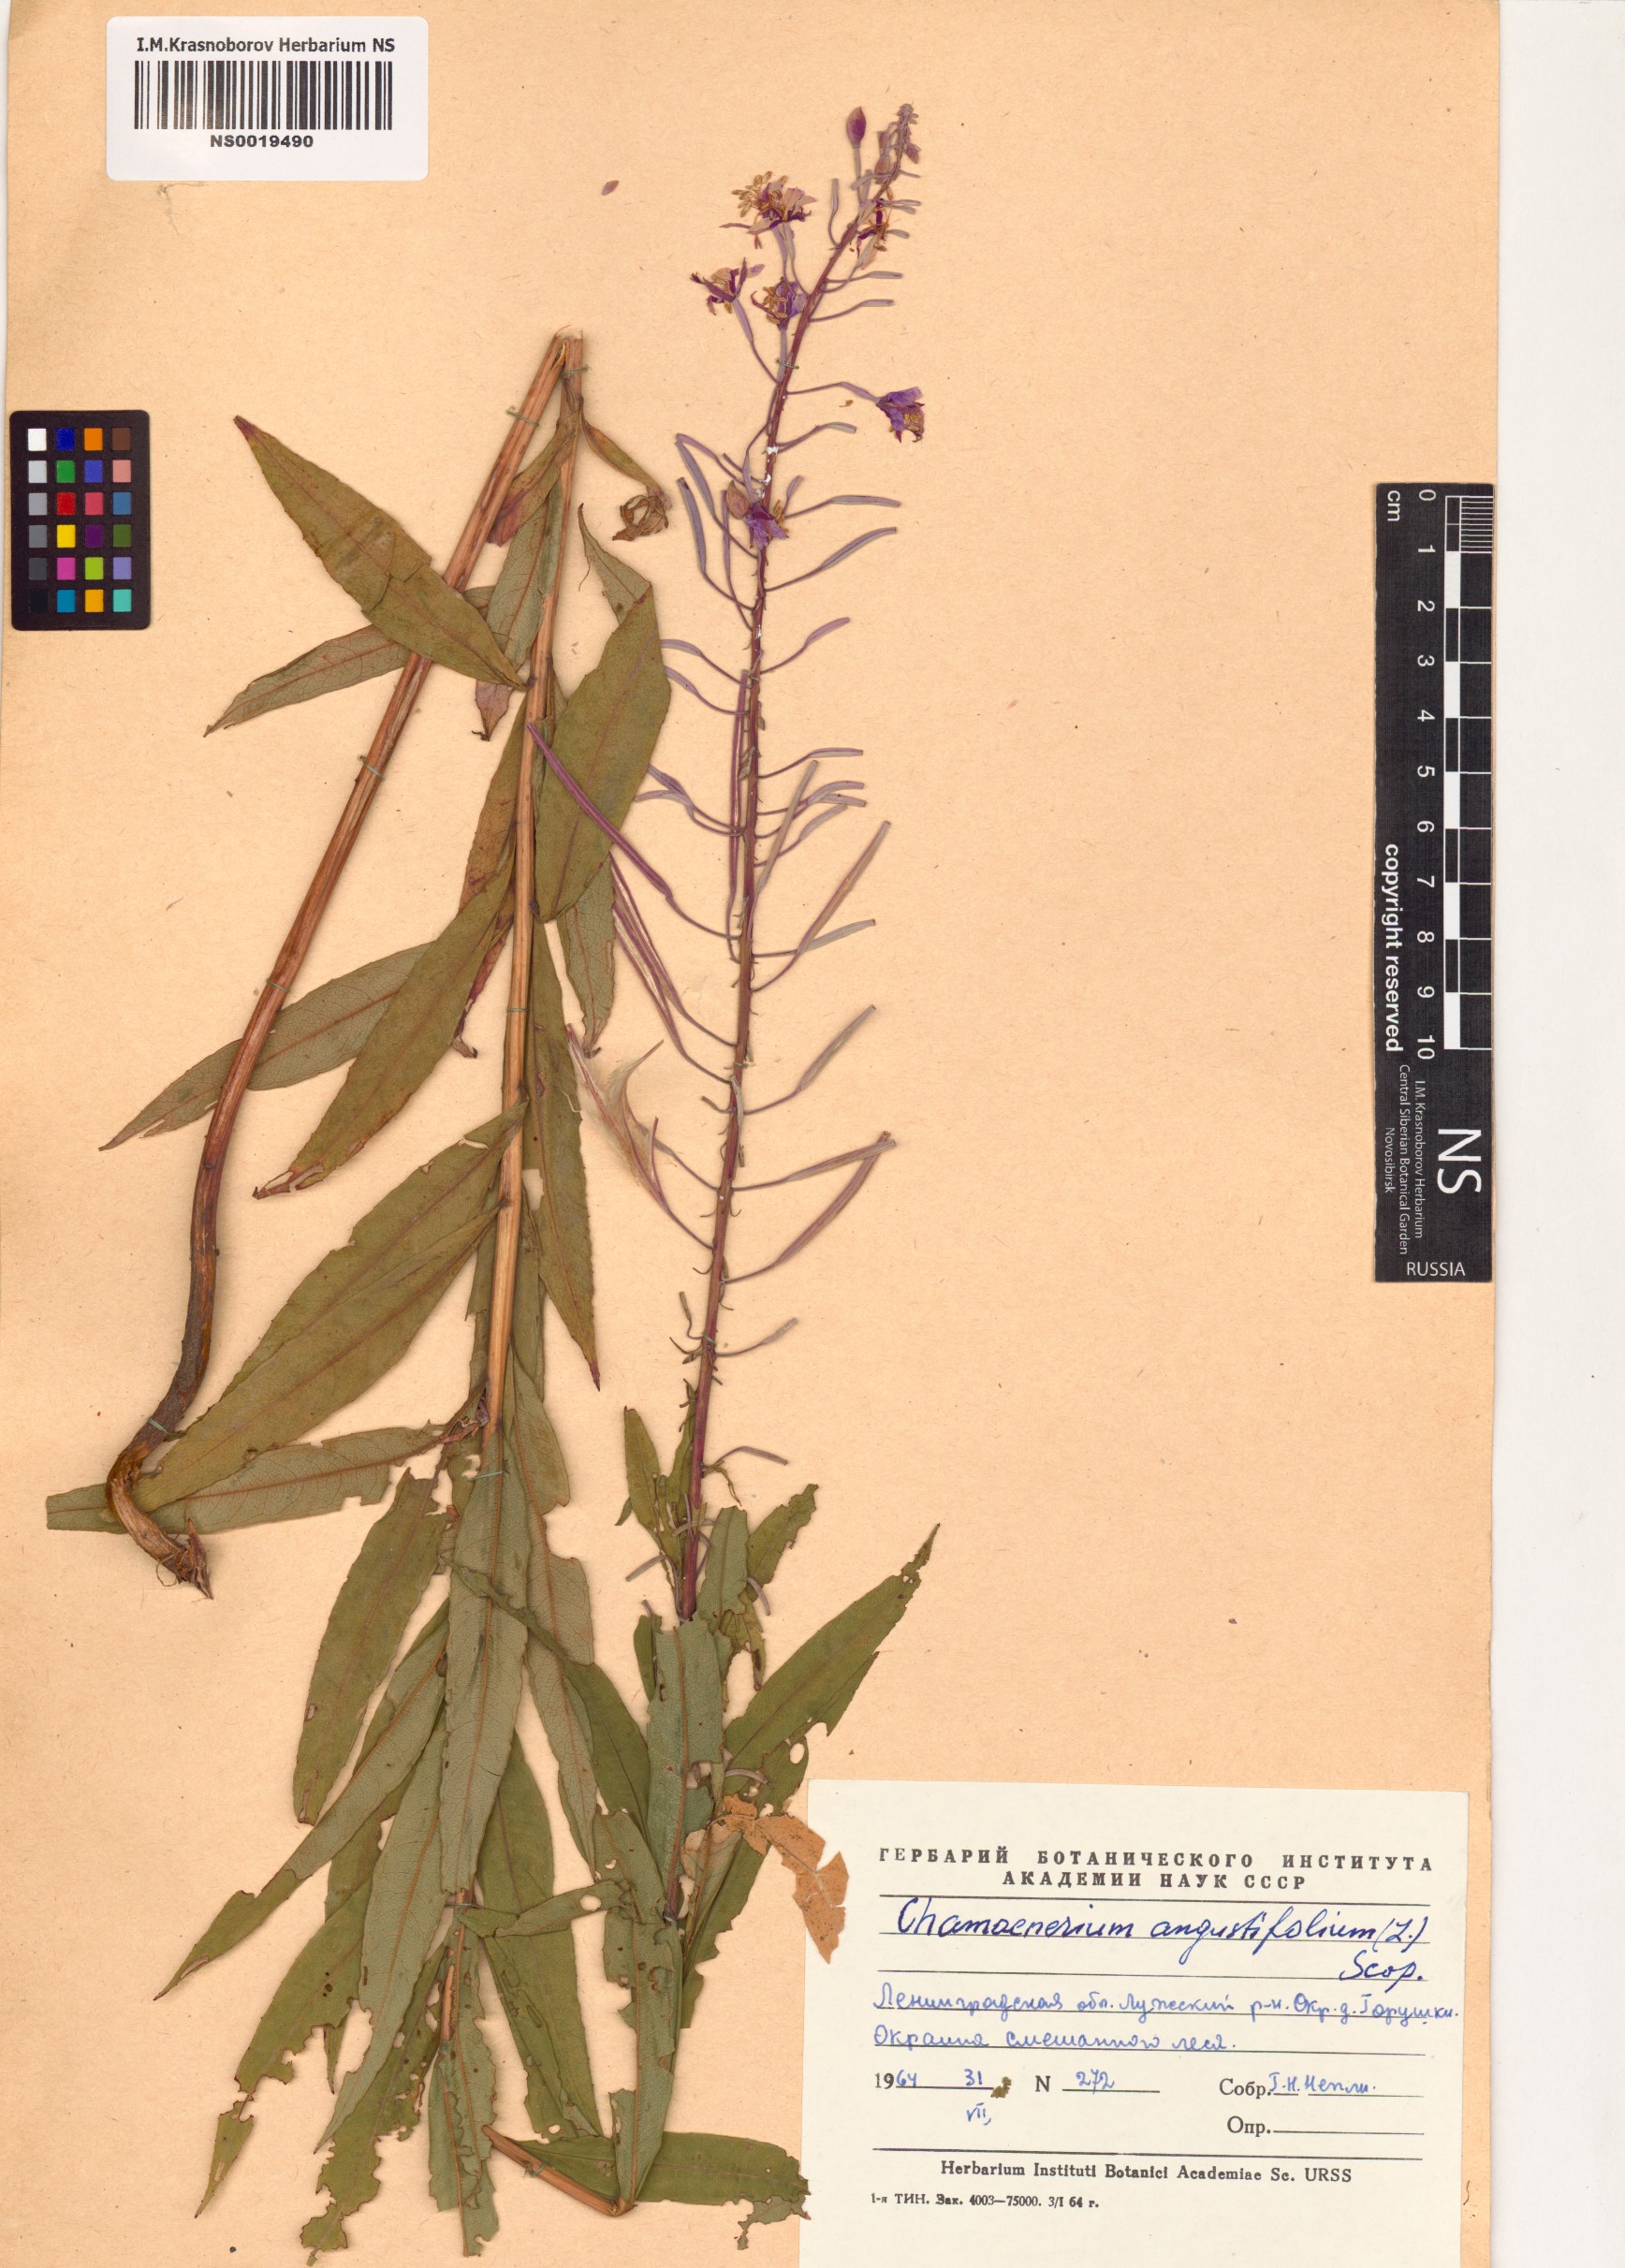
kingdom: Plantae
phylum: Tracheophyta
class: Magnoliopsida
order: Myrtales
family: Onagraceae
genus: Chamaenerion
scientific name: Chamaenerion angustifolium
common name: Fireweed
